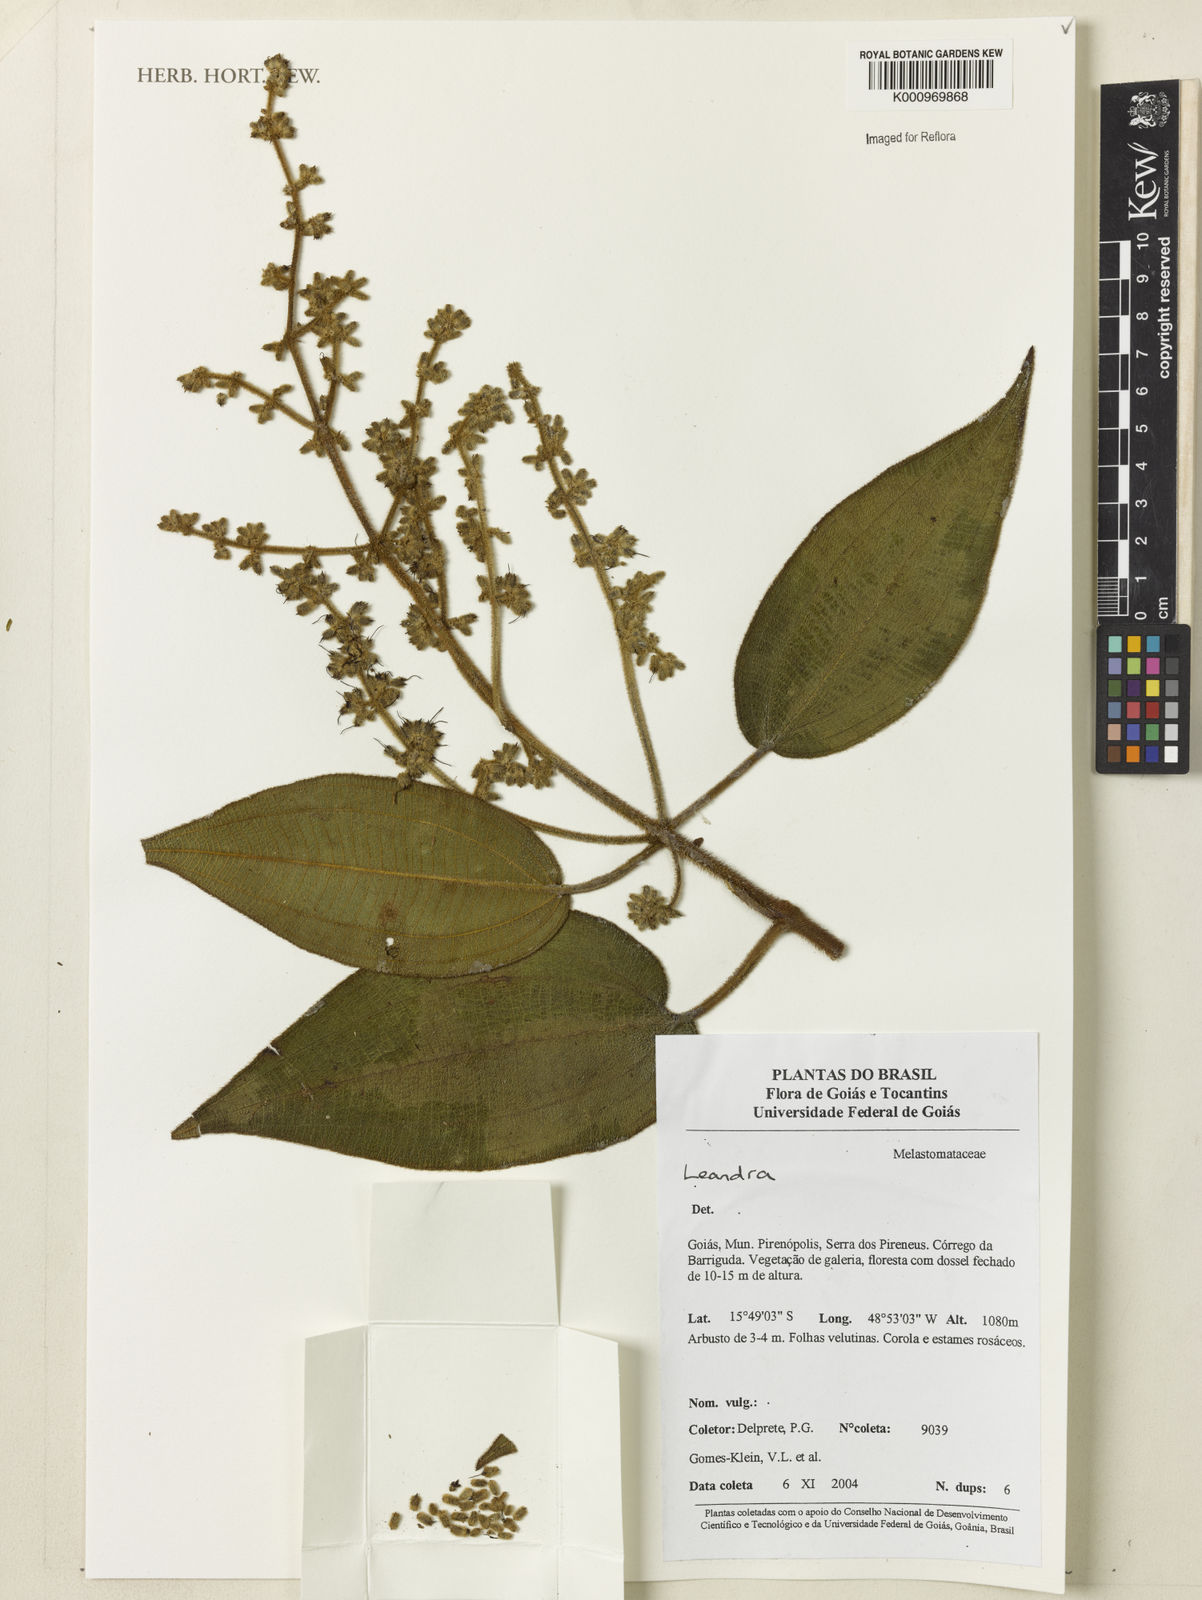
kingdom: Plantae
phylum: Tracheophyta
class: Magnoliopsida
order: Myrtales
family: Melastomataceae
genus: Miconia
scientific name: Miconia
